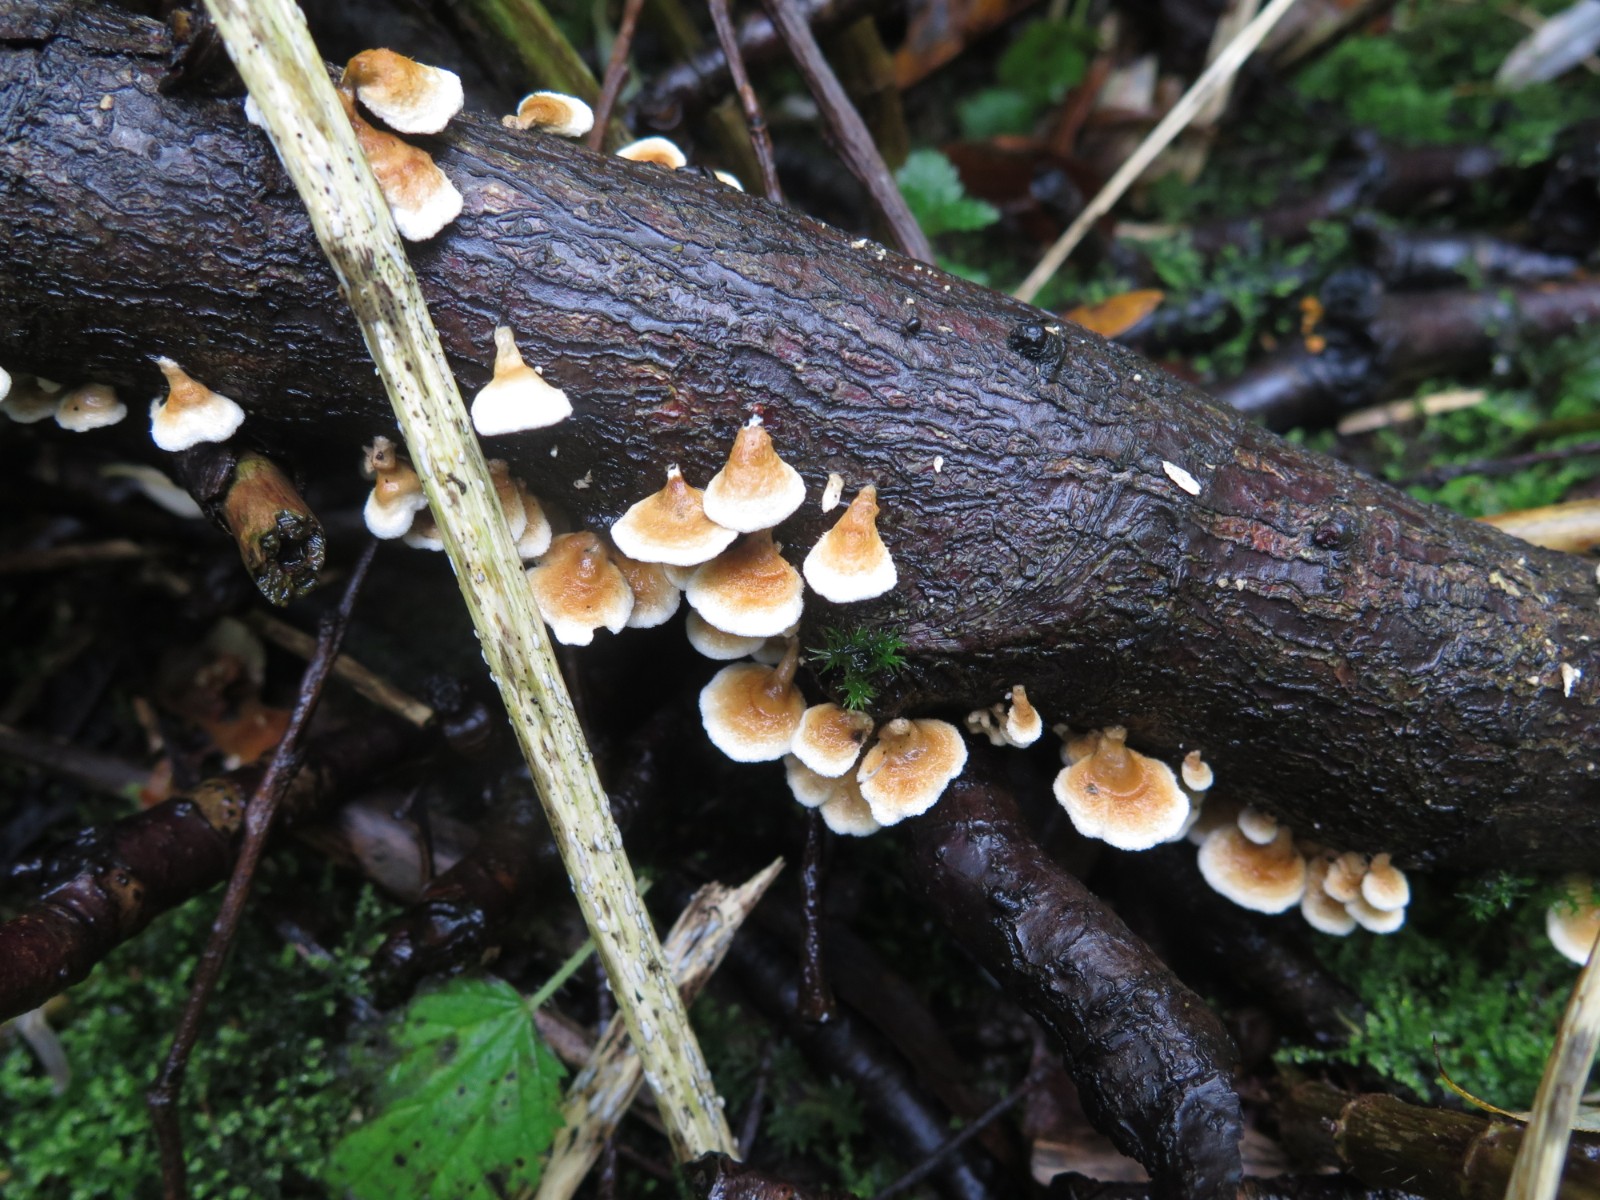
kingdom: Fungi
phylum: Basidiomycota
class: Agaricomycetes
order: Amylocorticiales
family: Amylocorticiaceae
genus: Plicaturopsis
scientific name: Plicaturopsis crispa
